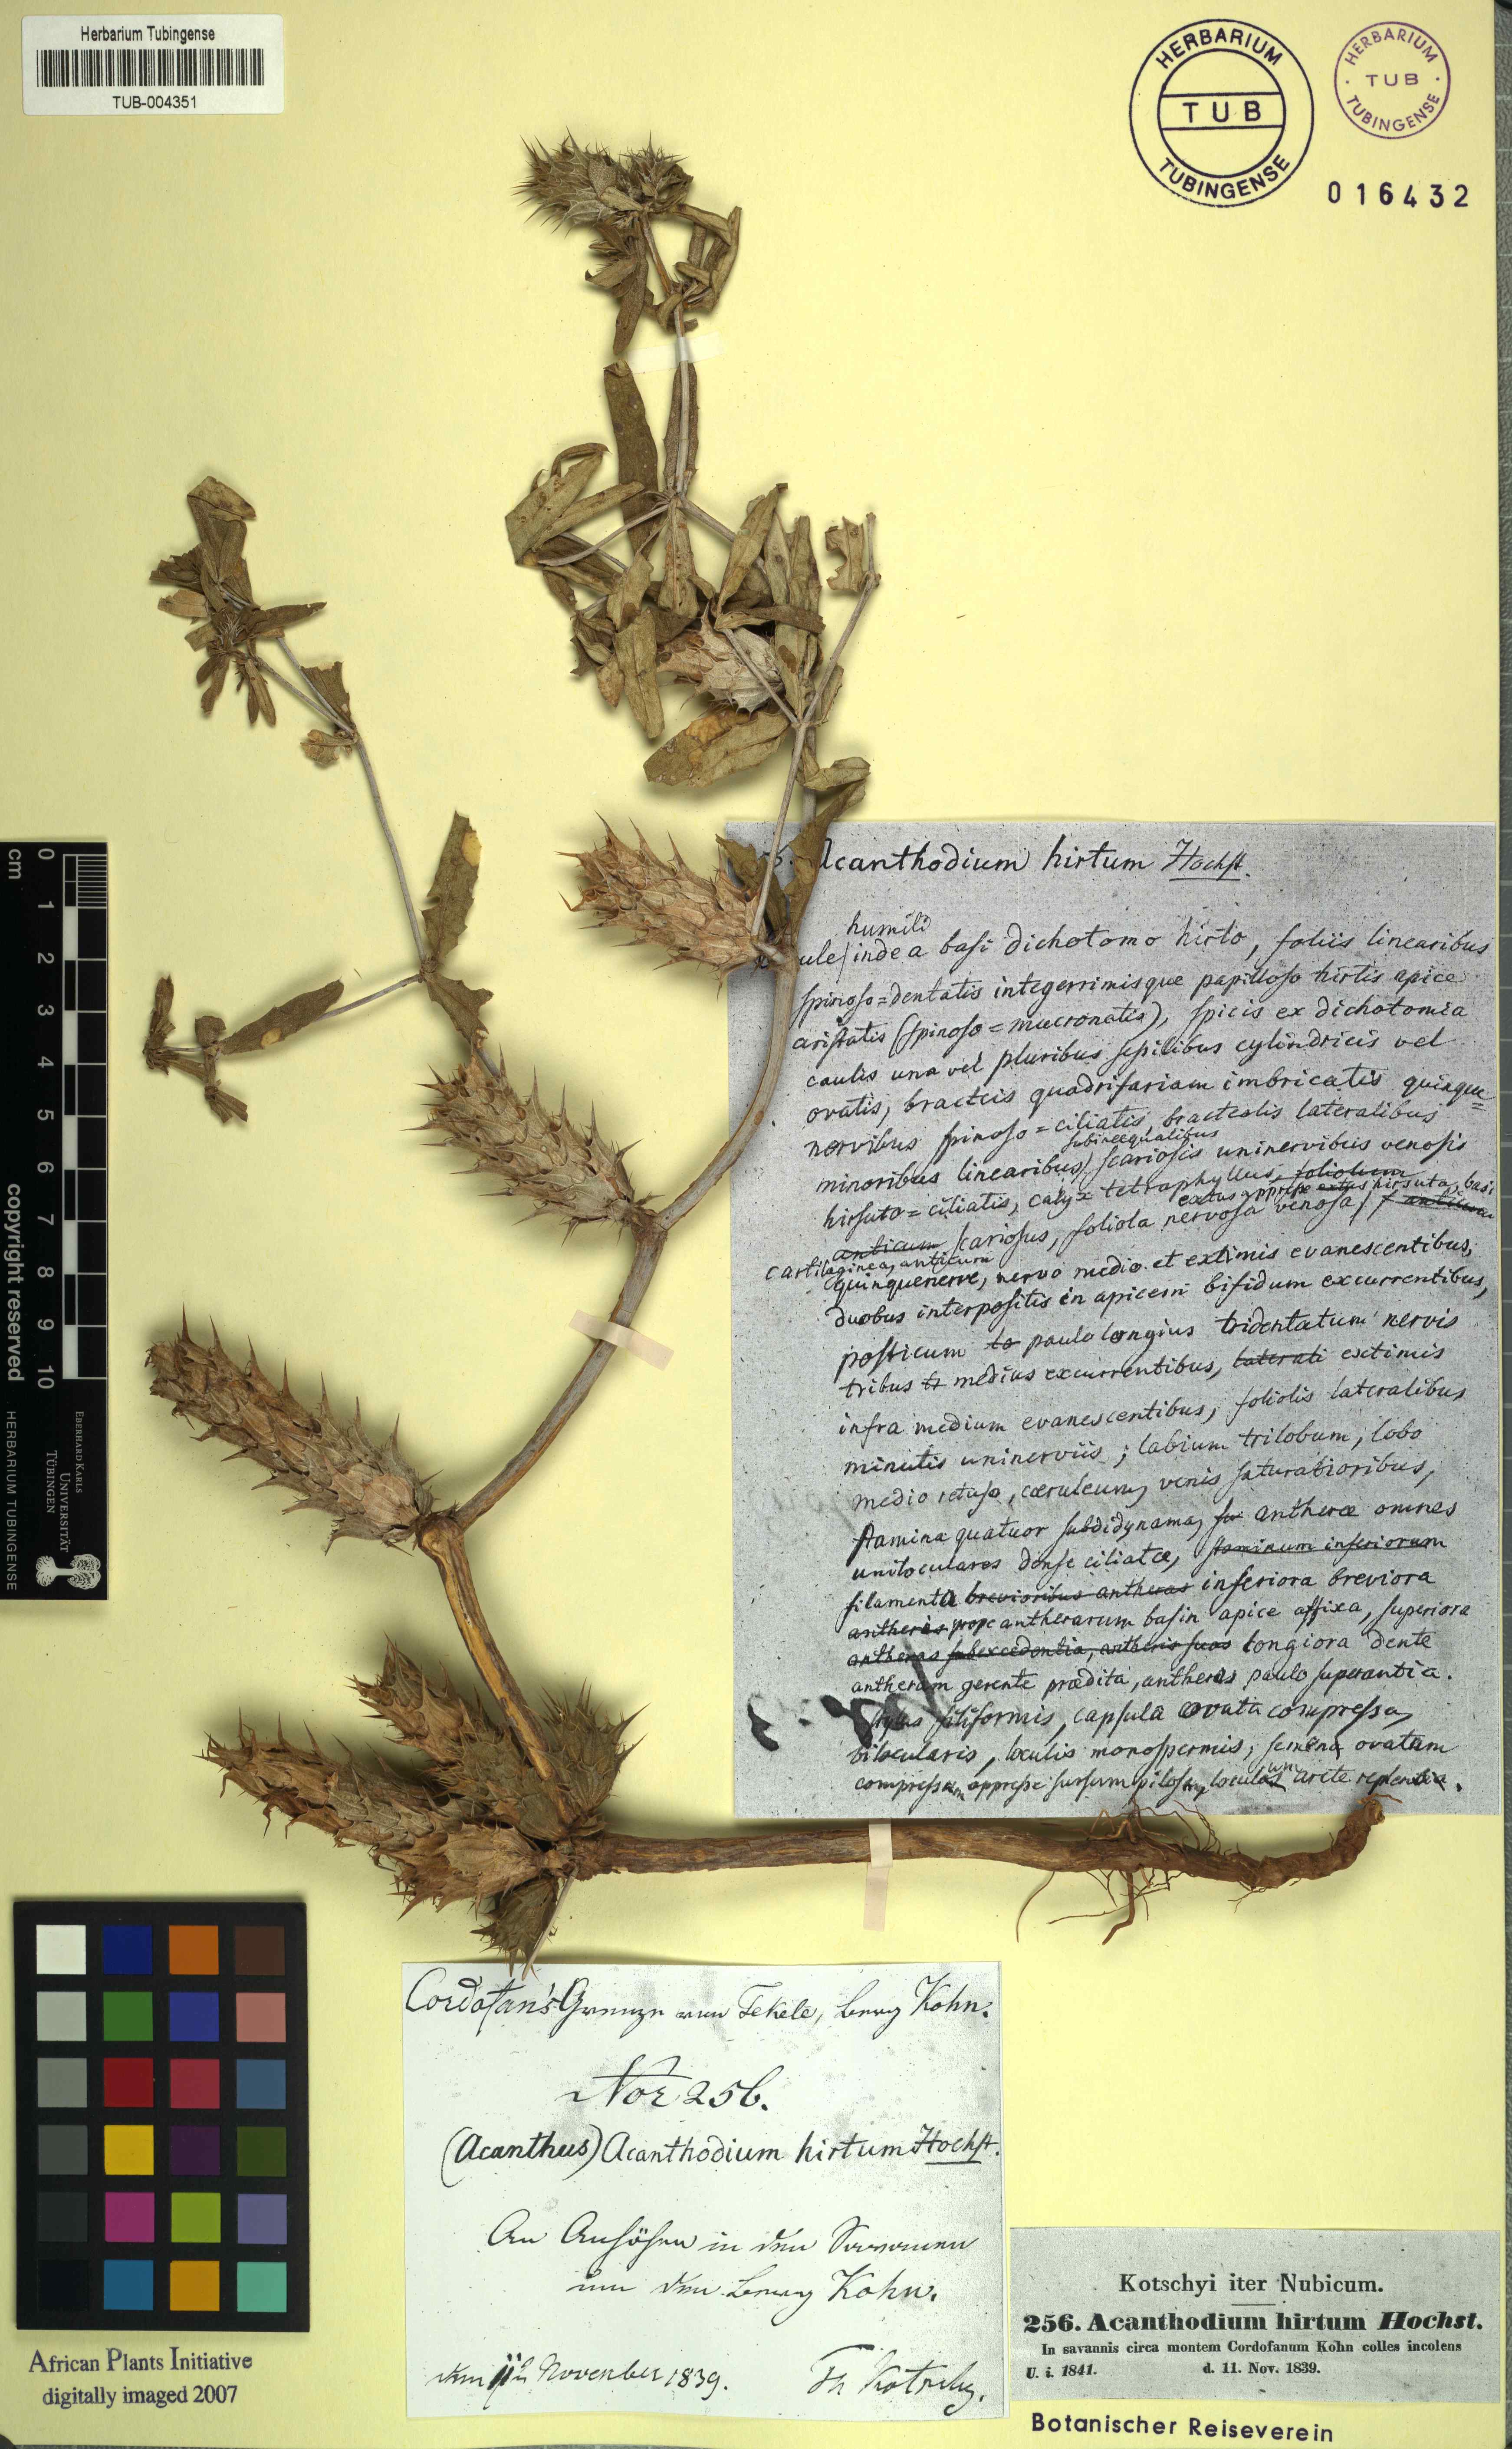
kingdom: Plantae
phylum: Tracheophyta
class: Magnoliopsida
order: Lamiales
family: Acanthaceae
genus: Blepharis
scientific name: Blepharis linearifolia
